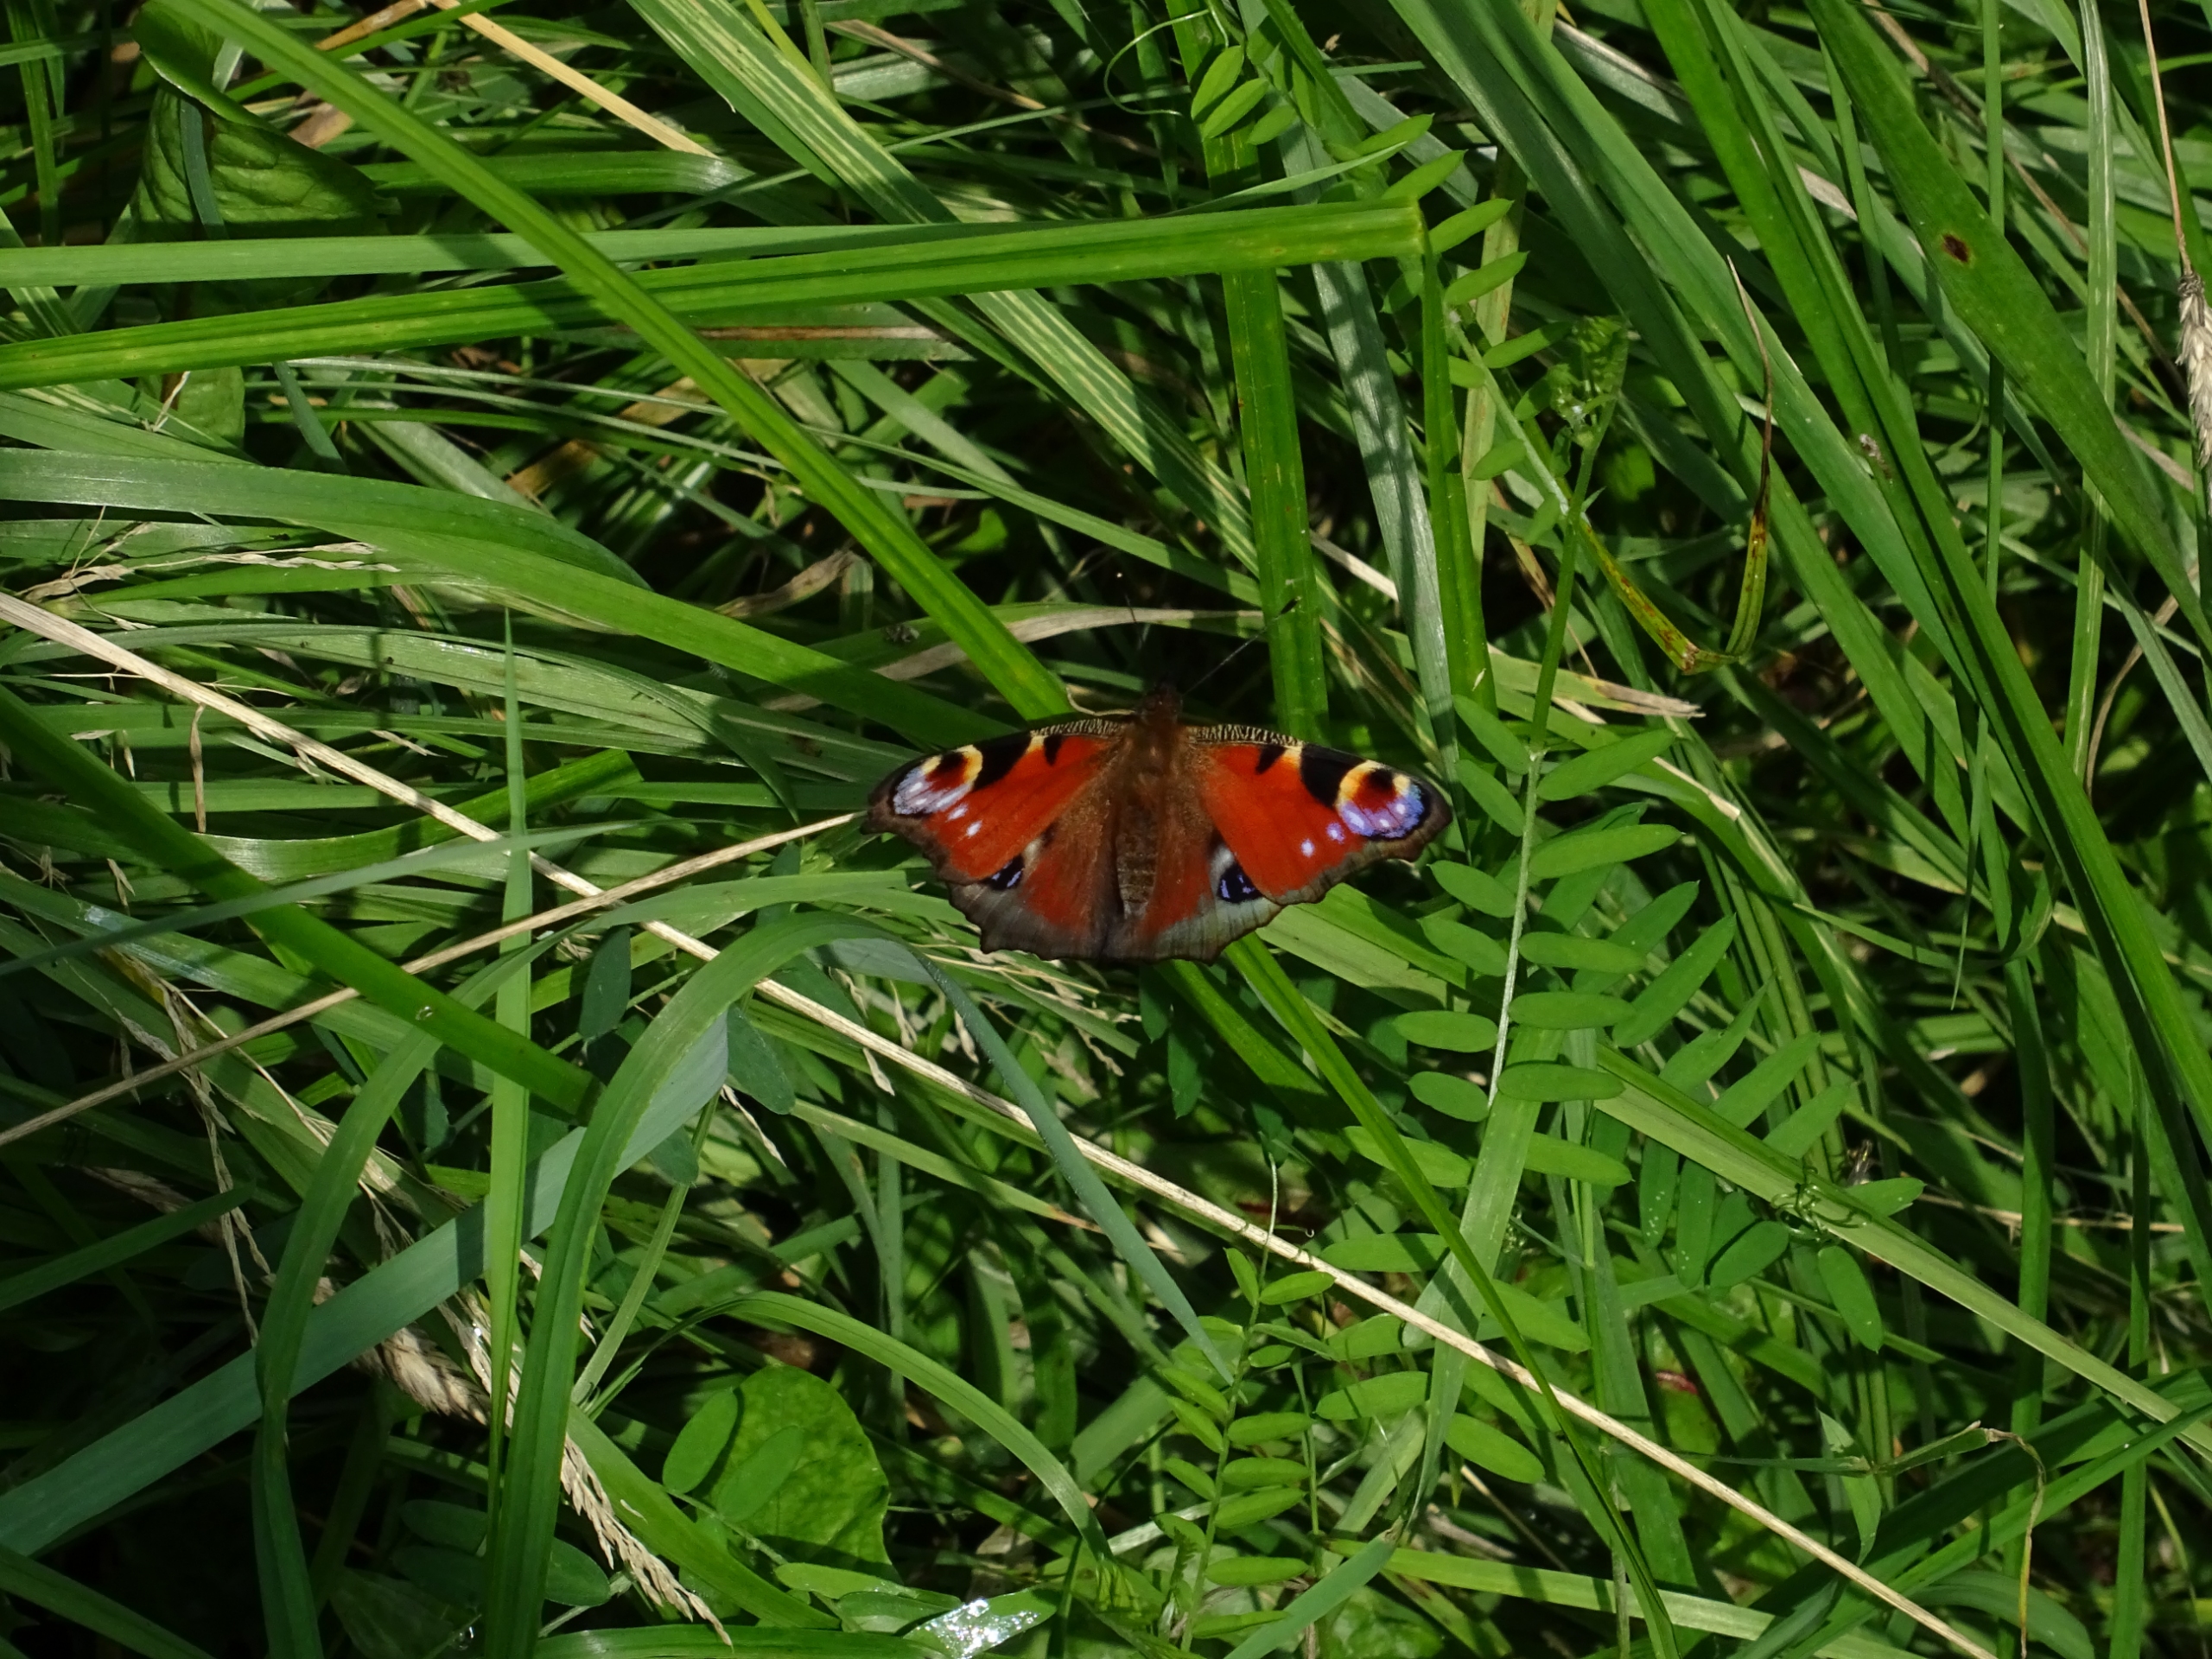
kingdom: Animalia
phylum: Arthropoda
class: Insecta
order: Lepidoptera
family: Nymphalidae
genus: Aglais
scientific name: Aglais io
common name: Dagpåfugleøje
